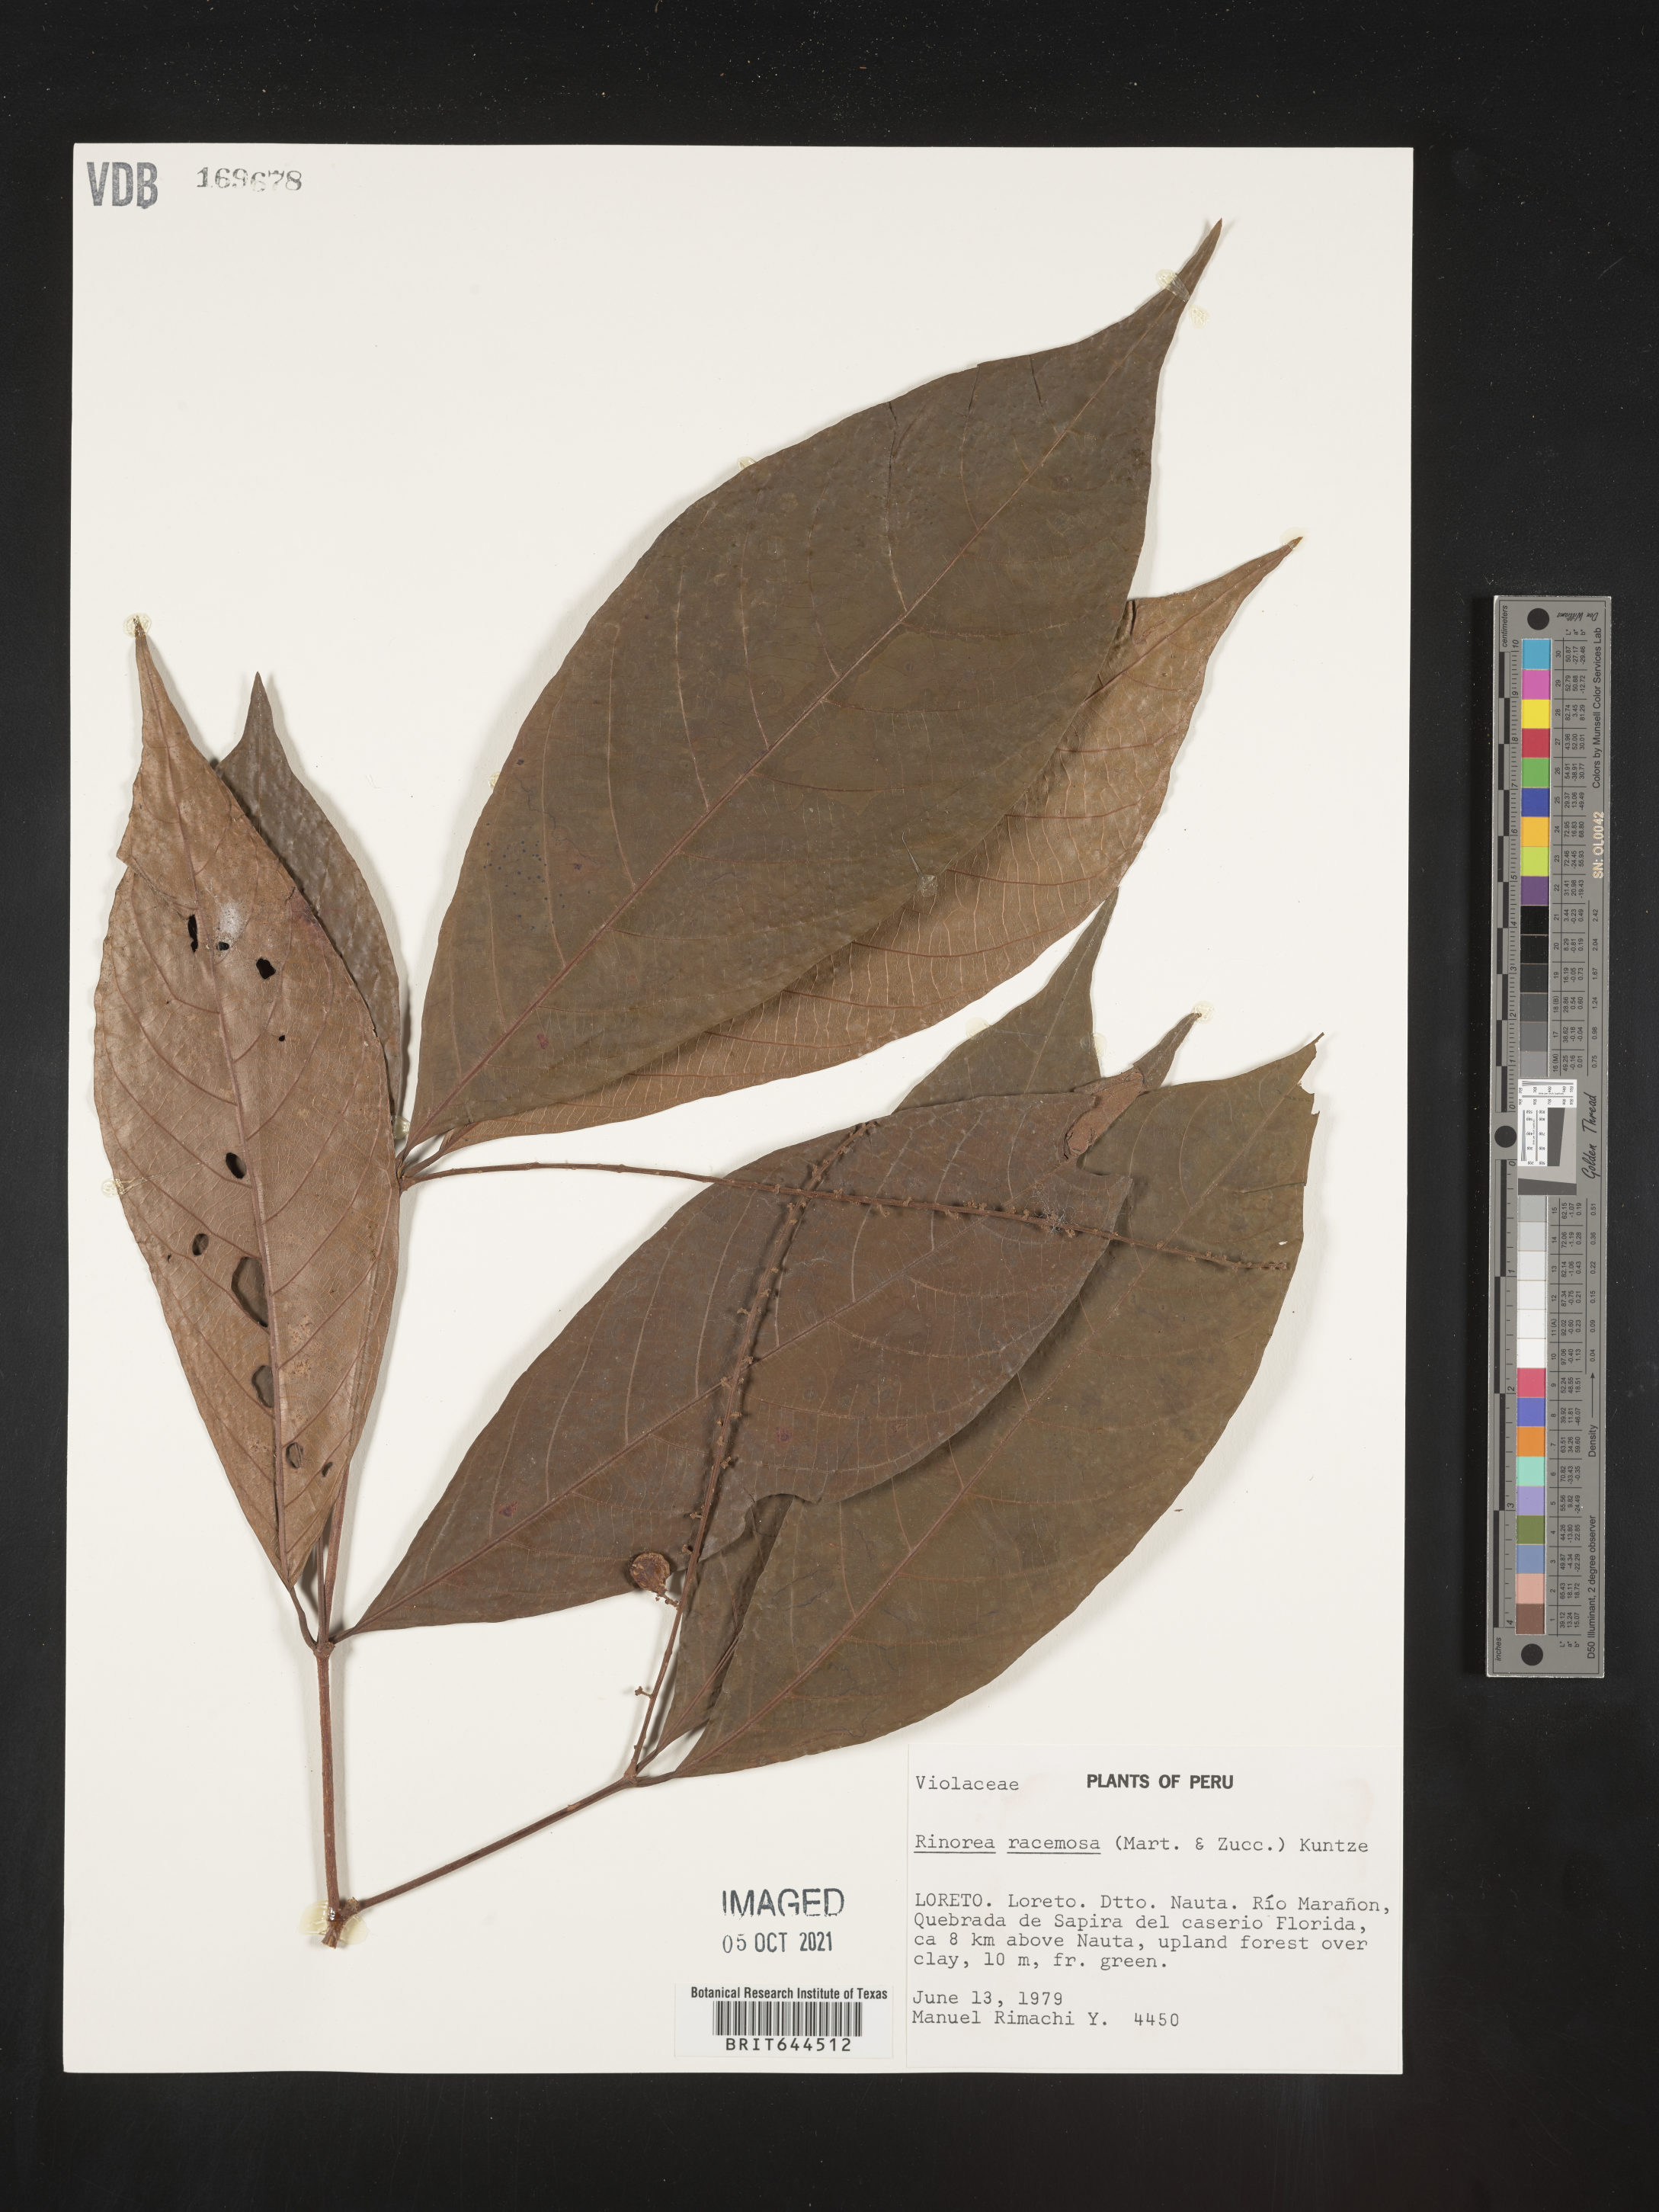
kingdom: Plantae
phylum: Tracheophyta
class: Magnoliopsida
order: Malpighiales
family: Violaceae
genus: Rinorea
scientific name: Rinorea
